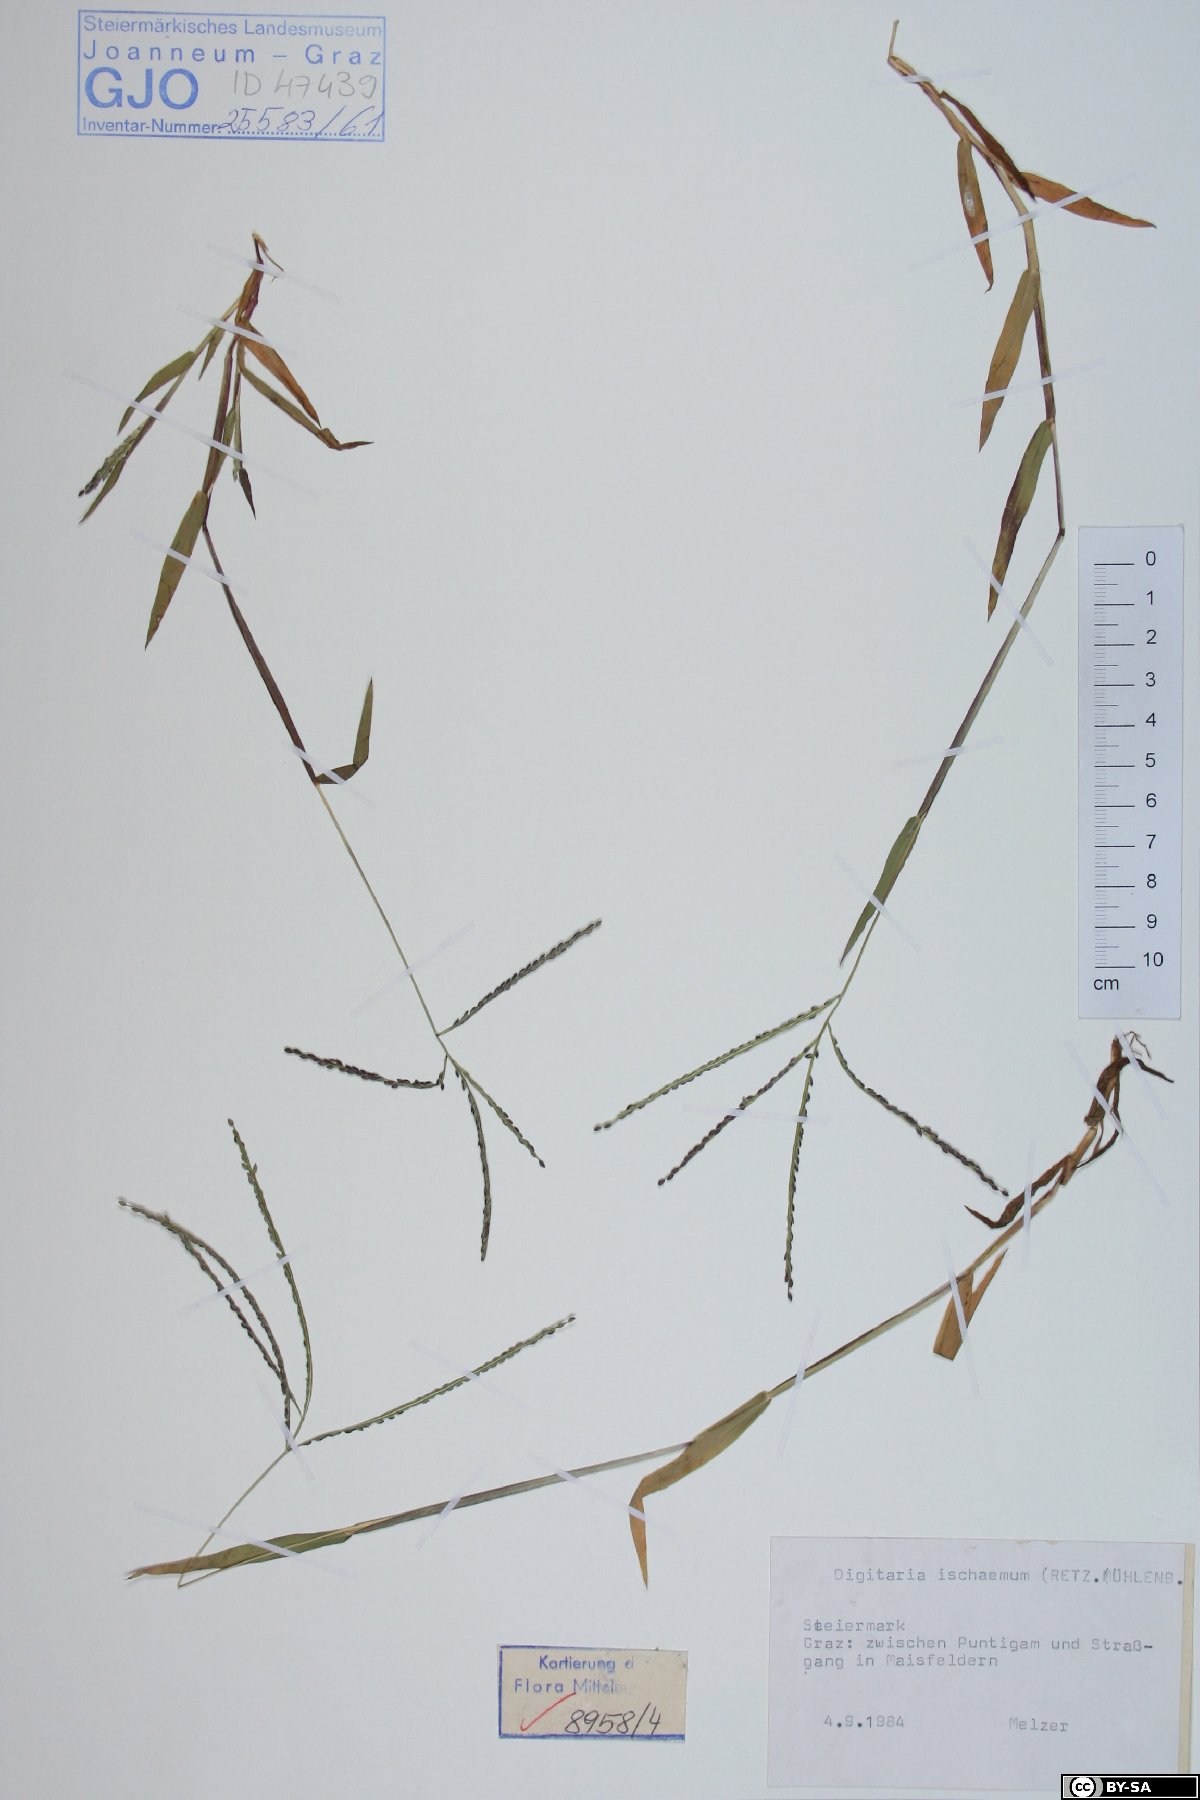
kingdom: Plantae
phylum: Tracheophyta
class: Liliopsida
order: Poales
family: Poaceae
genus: Digitaria
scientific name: Digitaria ischaemum
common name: Smooth crabgrass
